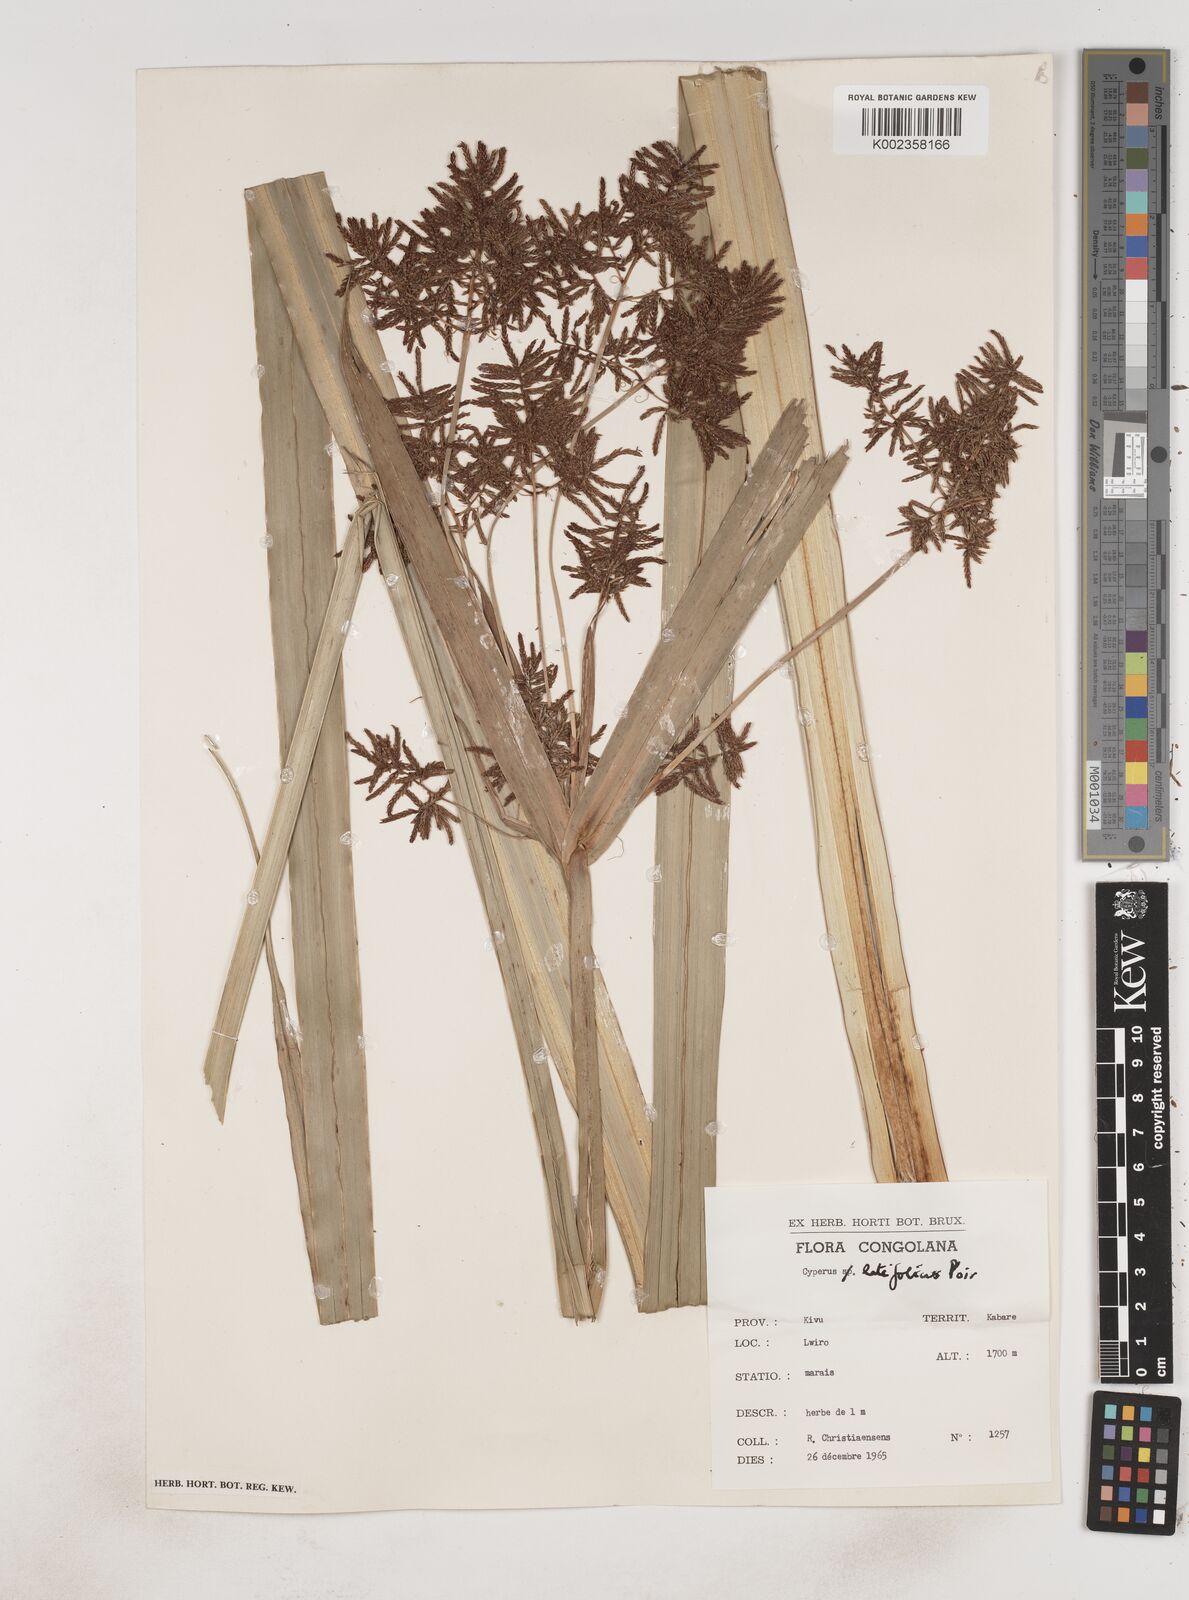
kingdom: Plantae
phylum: Tracheophyta
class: Liliopsida
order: Poales
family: Cyperaceae
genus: Cyperus
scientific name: Cyperus latifolius
